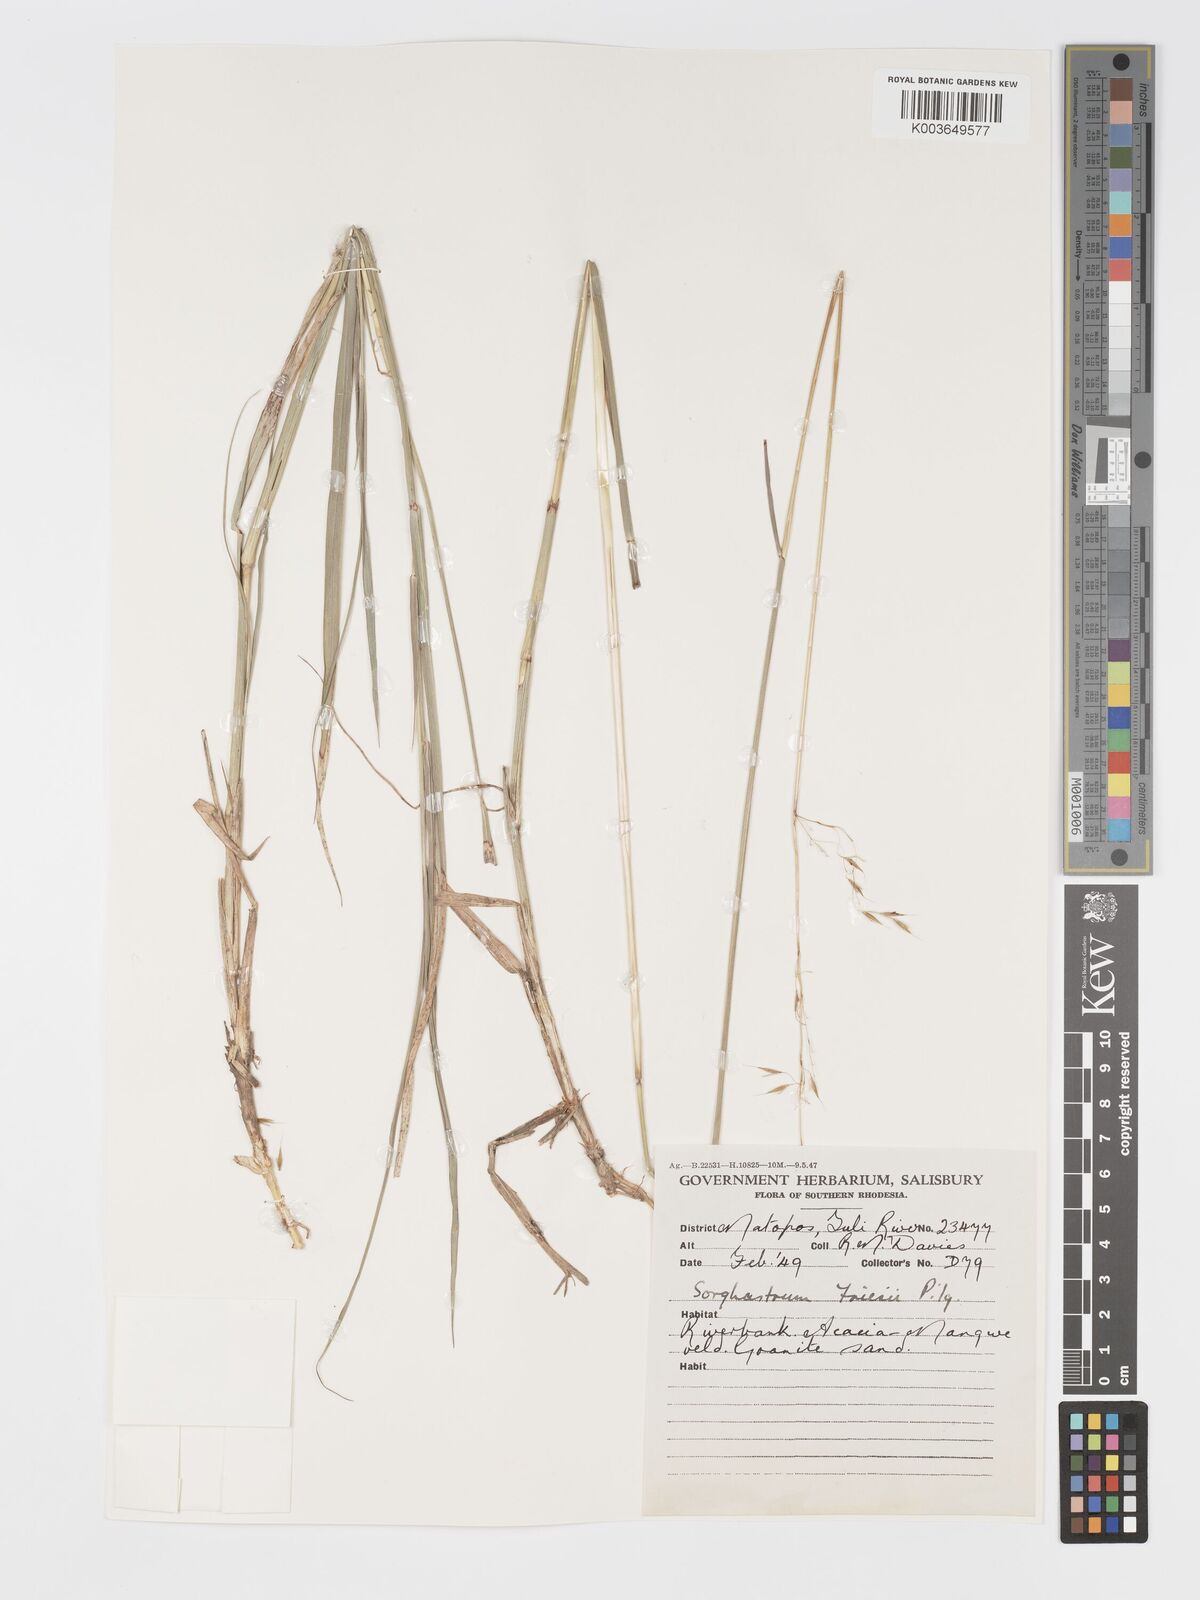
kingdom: Plantae
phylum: Tracheophyta
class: Liliopsida
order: Poales
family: Poaceae
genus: Sorghastrum
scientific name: Sorghastrum nudipes
